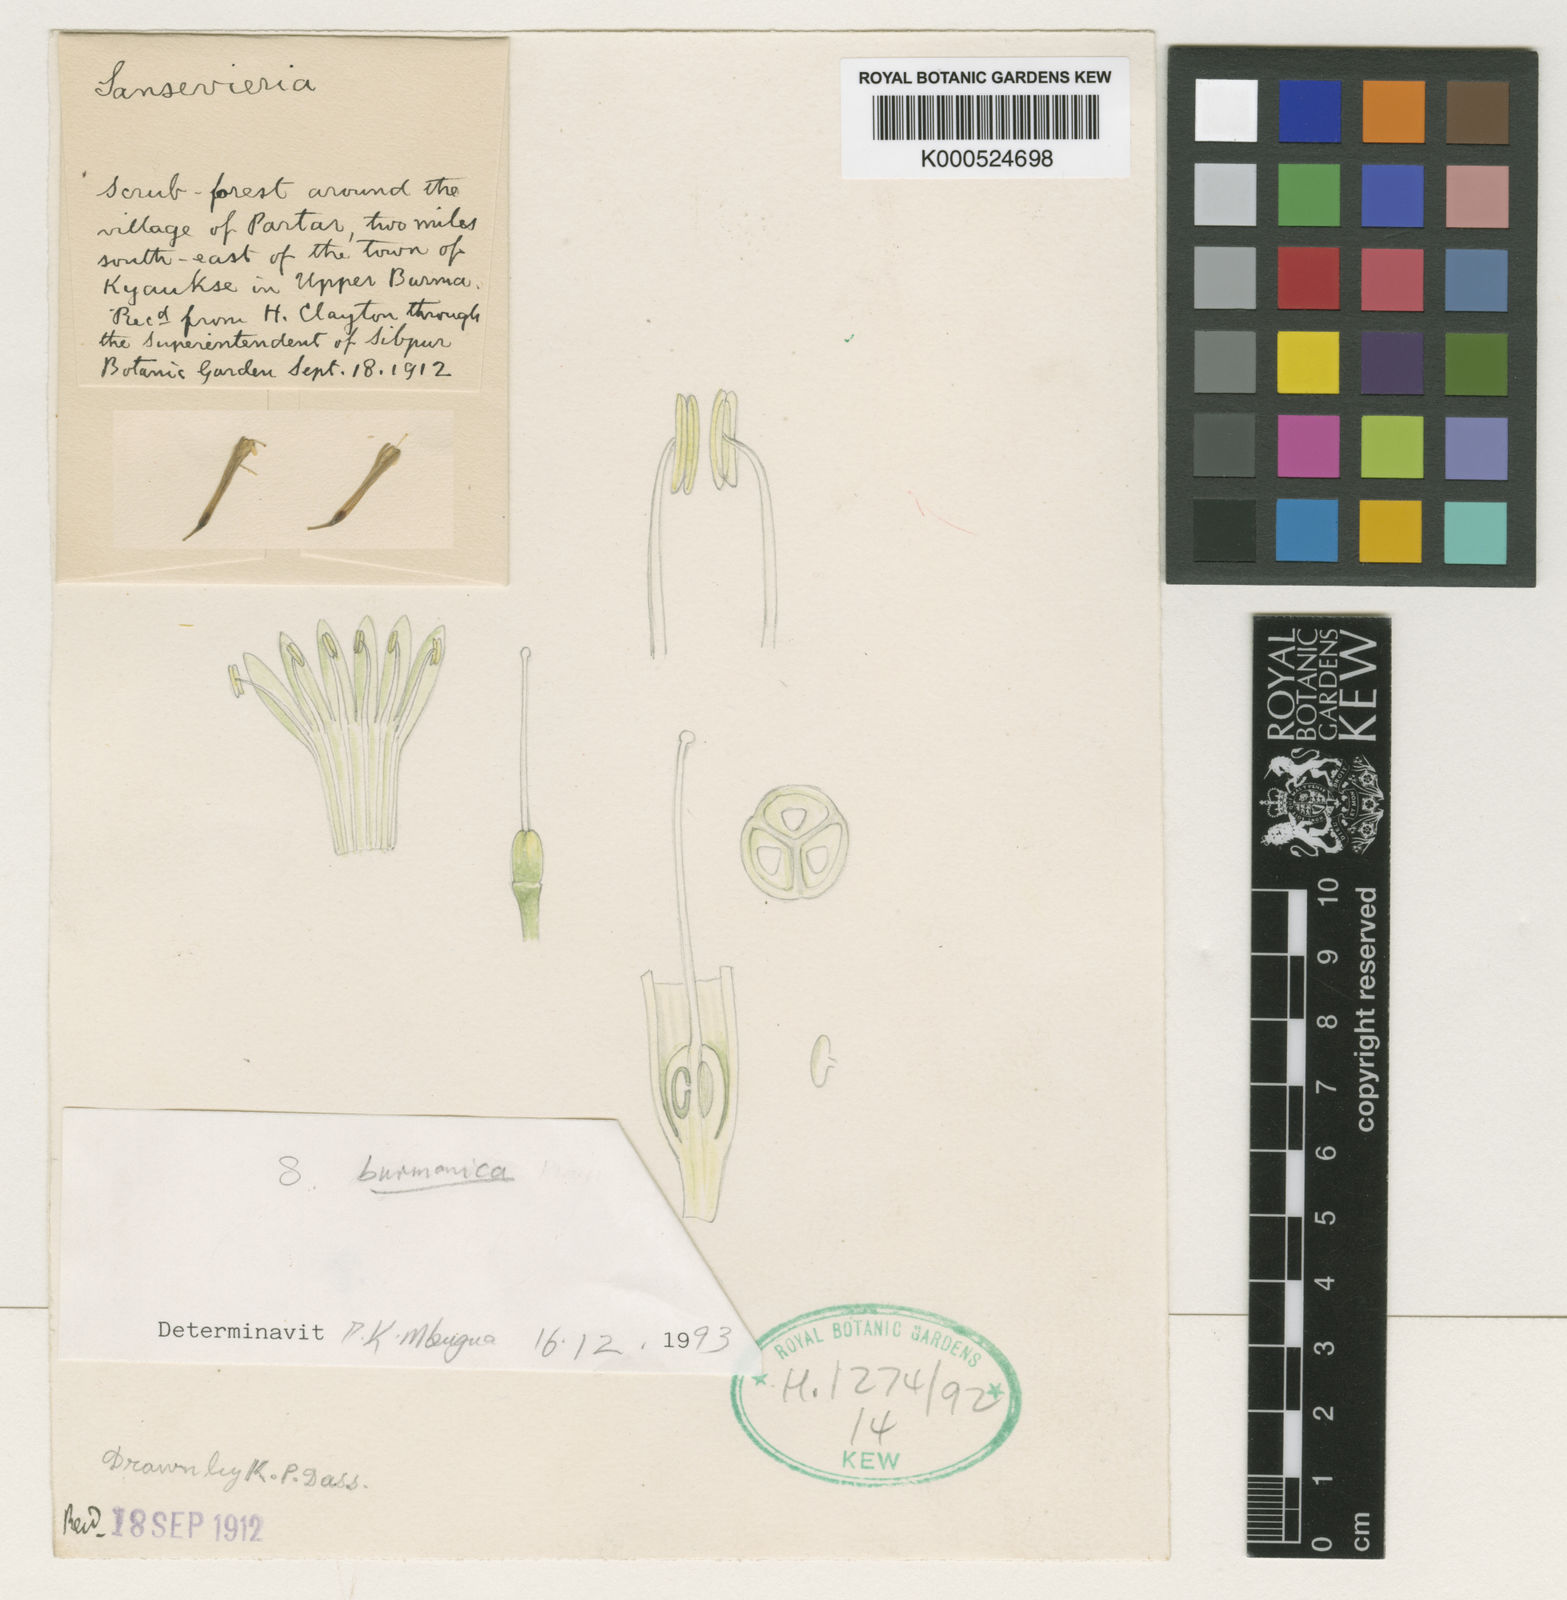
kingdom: Plantae
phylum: Tracheophyta
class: Liliopsida
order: Asparagales
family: Asparagaceae
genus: Dracaena
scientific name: Dracaena burmanica
